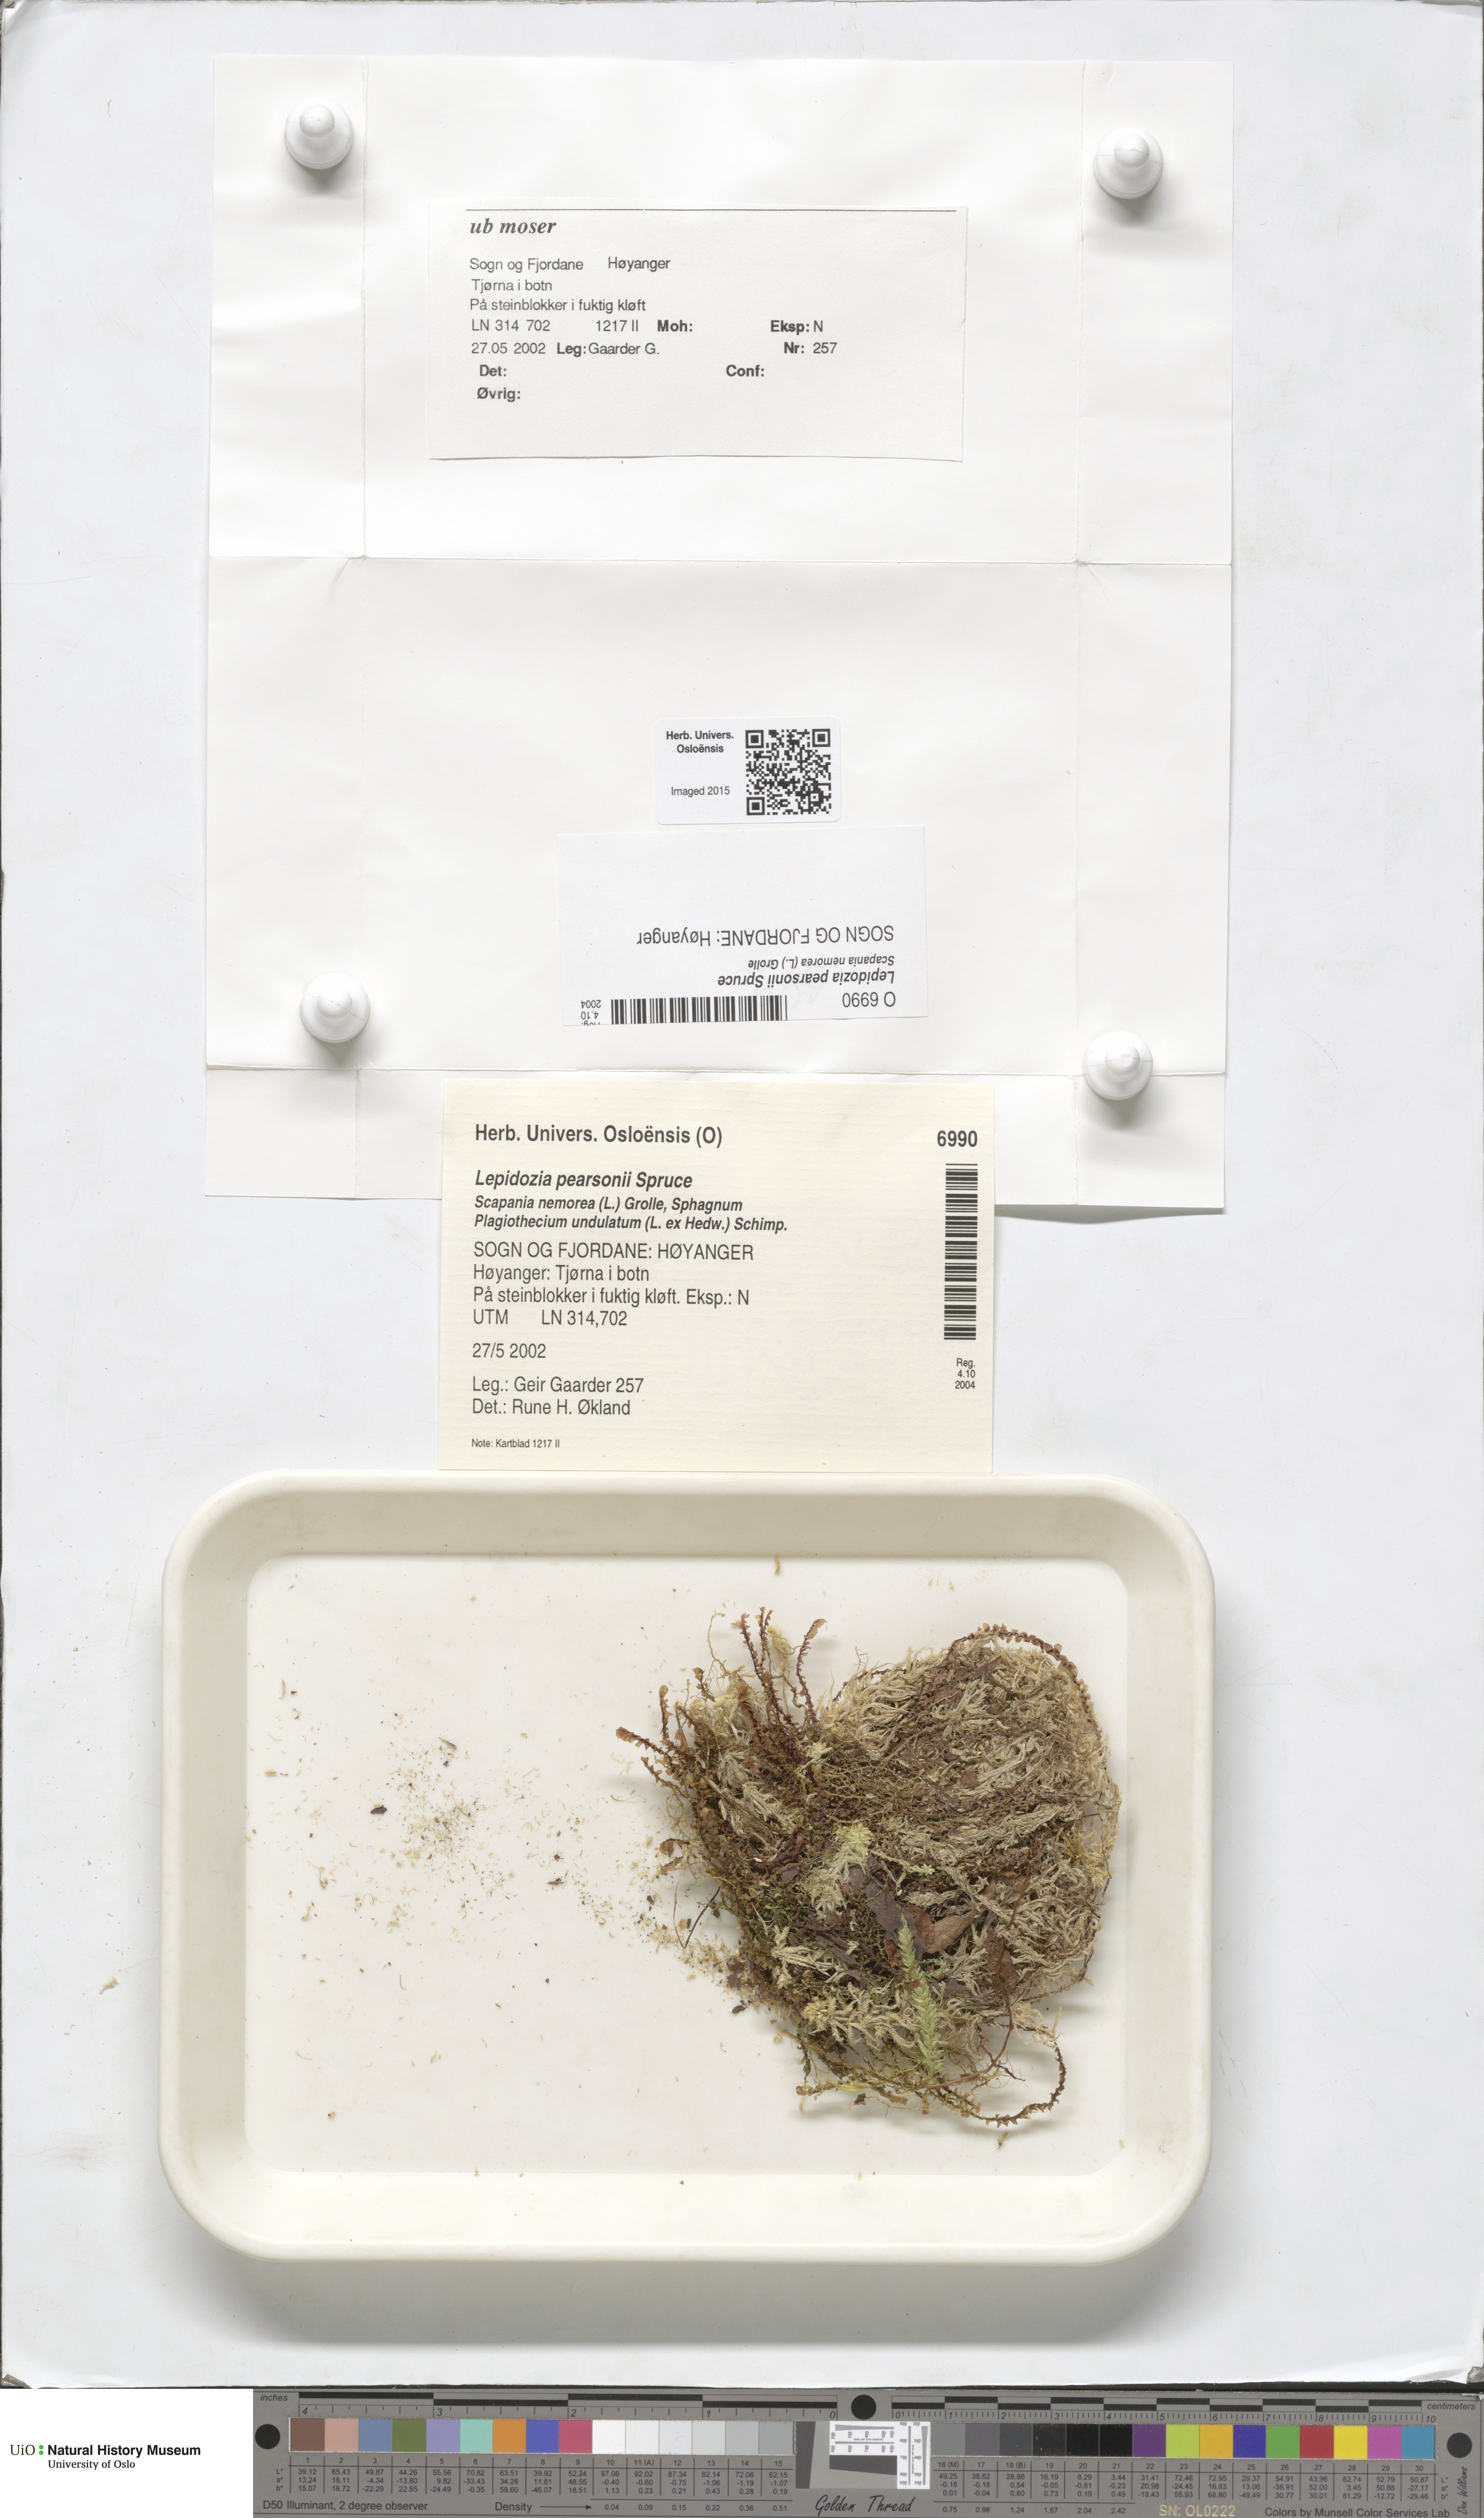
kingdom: Plantae
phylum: Marchantiophyta
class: Jungermanniopsida
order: Jungermanniales
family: Lepidoziaceae
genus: Lepidozia
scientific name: Lepidozia pearsonii
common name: Pearson's fingerwort
